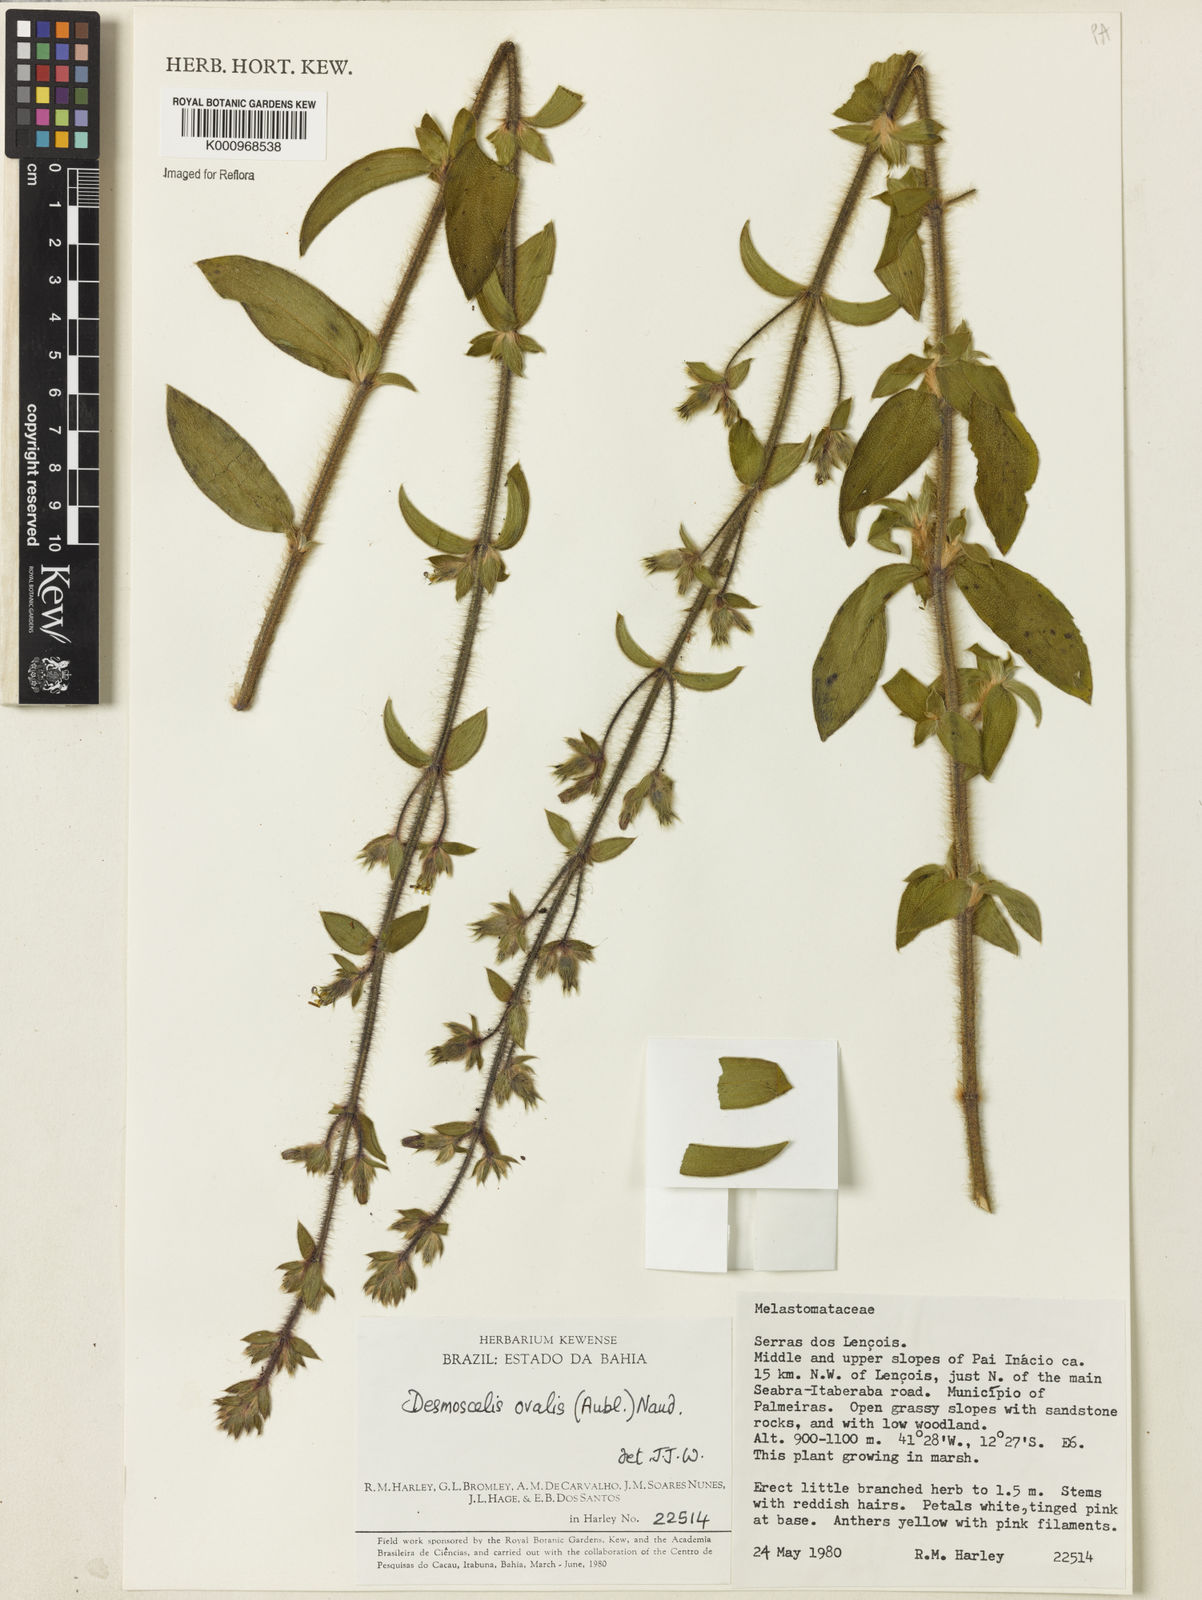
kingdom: Plantae
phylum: Tracheophyta
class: Magnoliopsida
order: Myrtales
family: Melastomataceae
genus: Desmoscelis
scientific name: Desmoscelis
